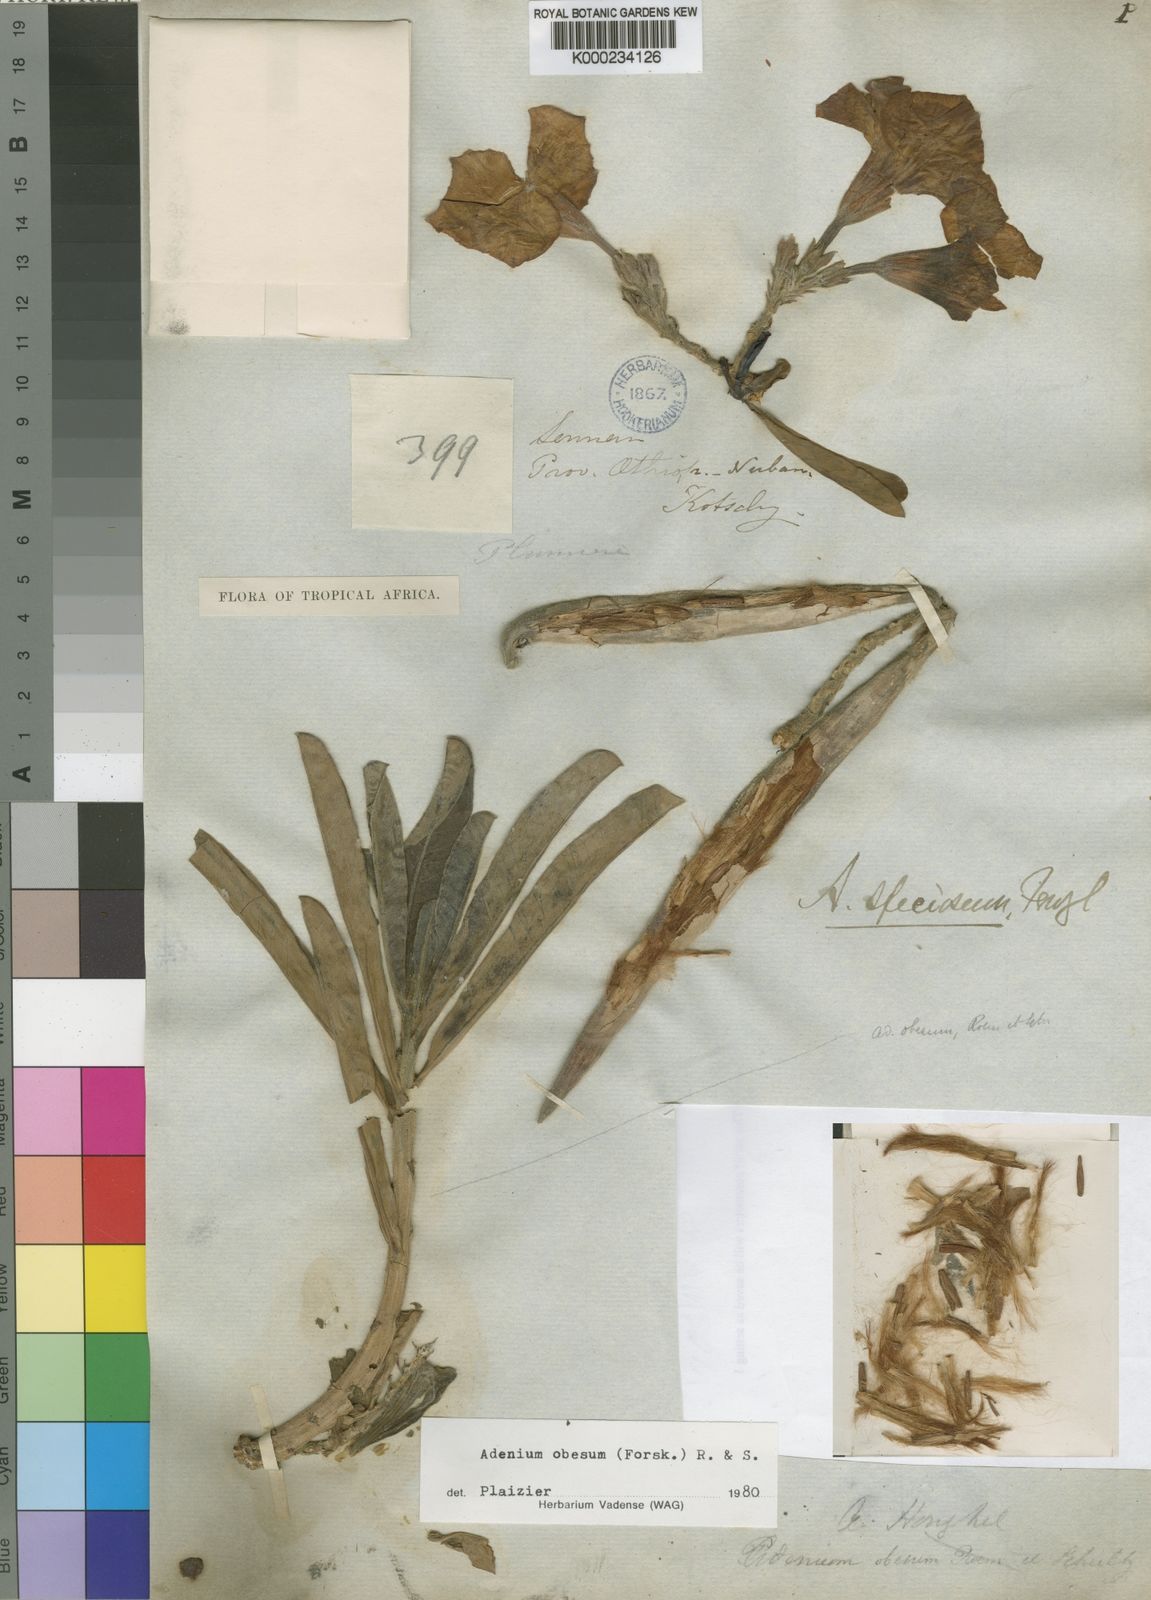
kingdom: Plantae
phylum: Tracheophyta
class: Magnoliopsida
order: Gentianales
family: Apocynaceae
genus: Adenium
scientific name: Adenium obesum
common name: Desert-rose
